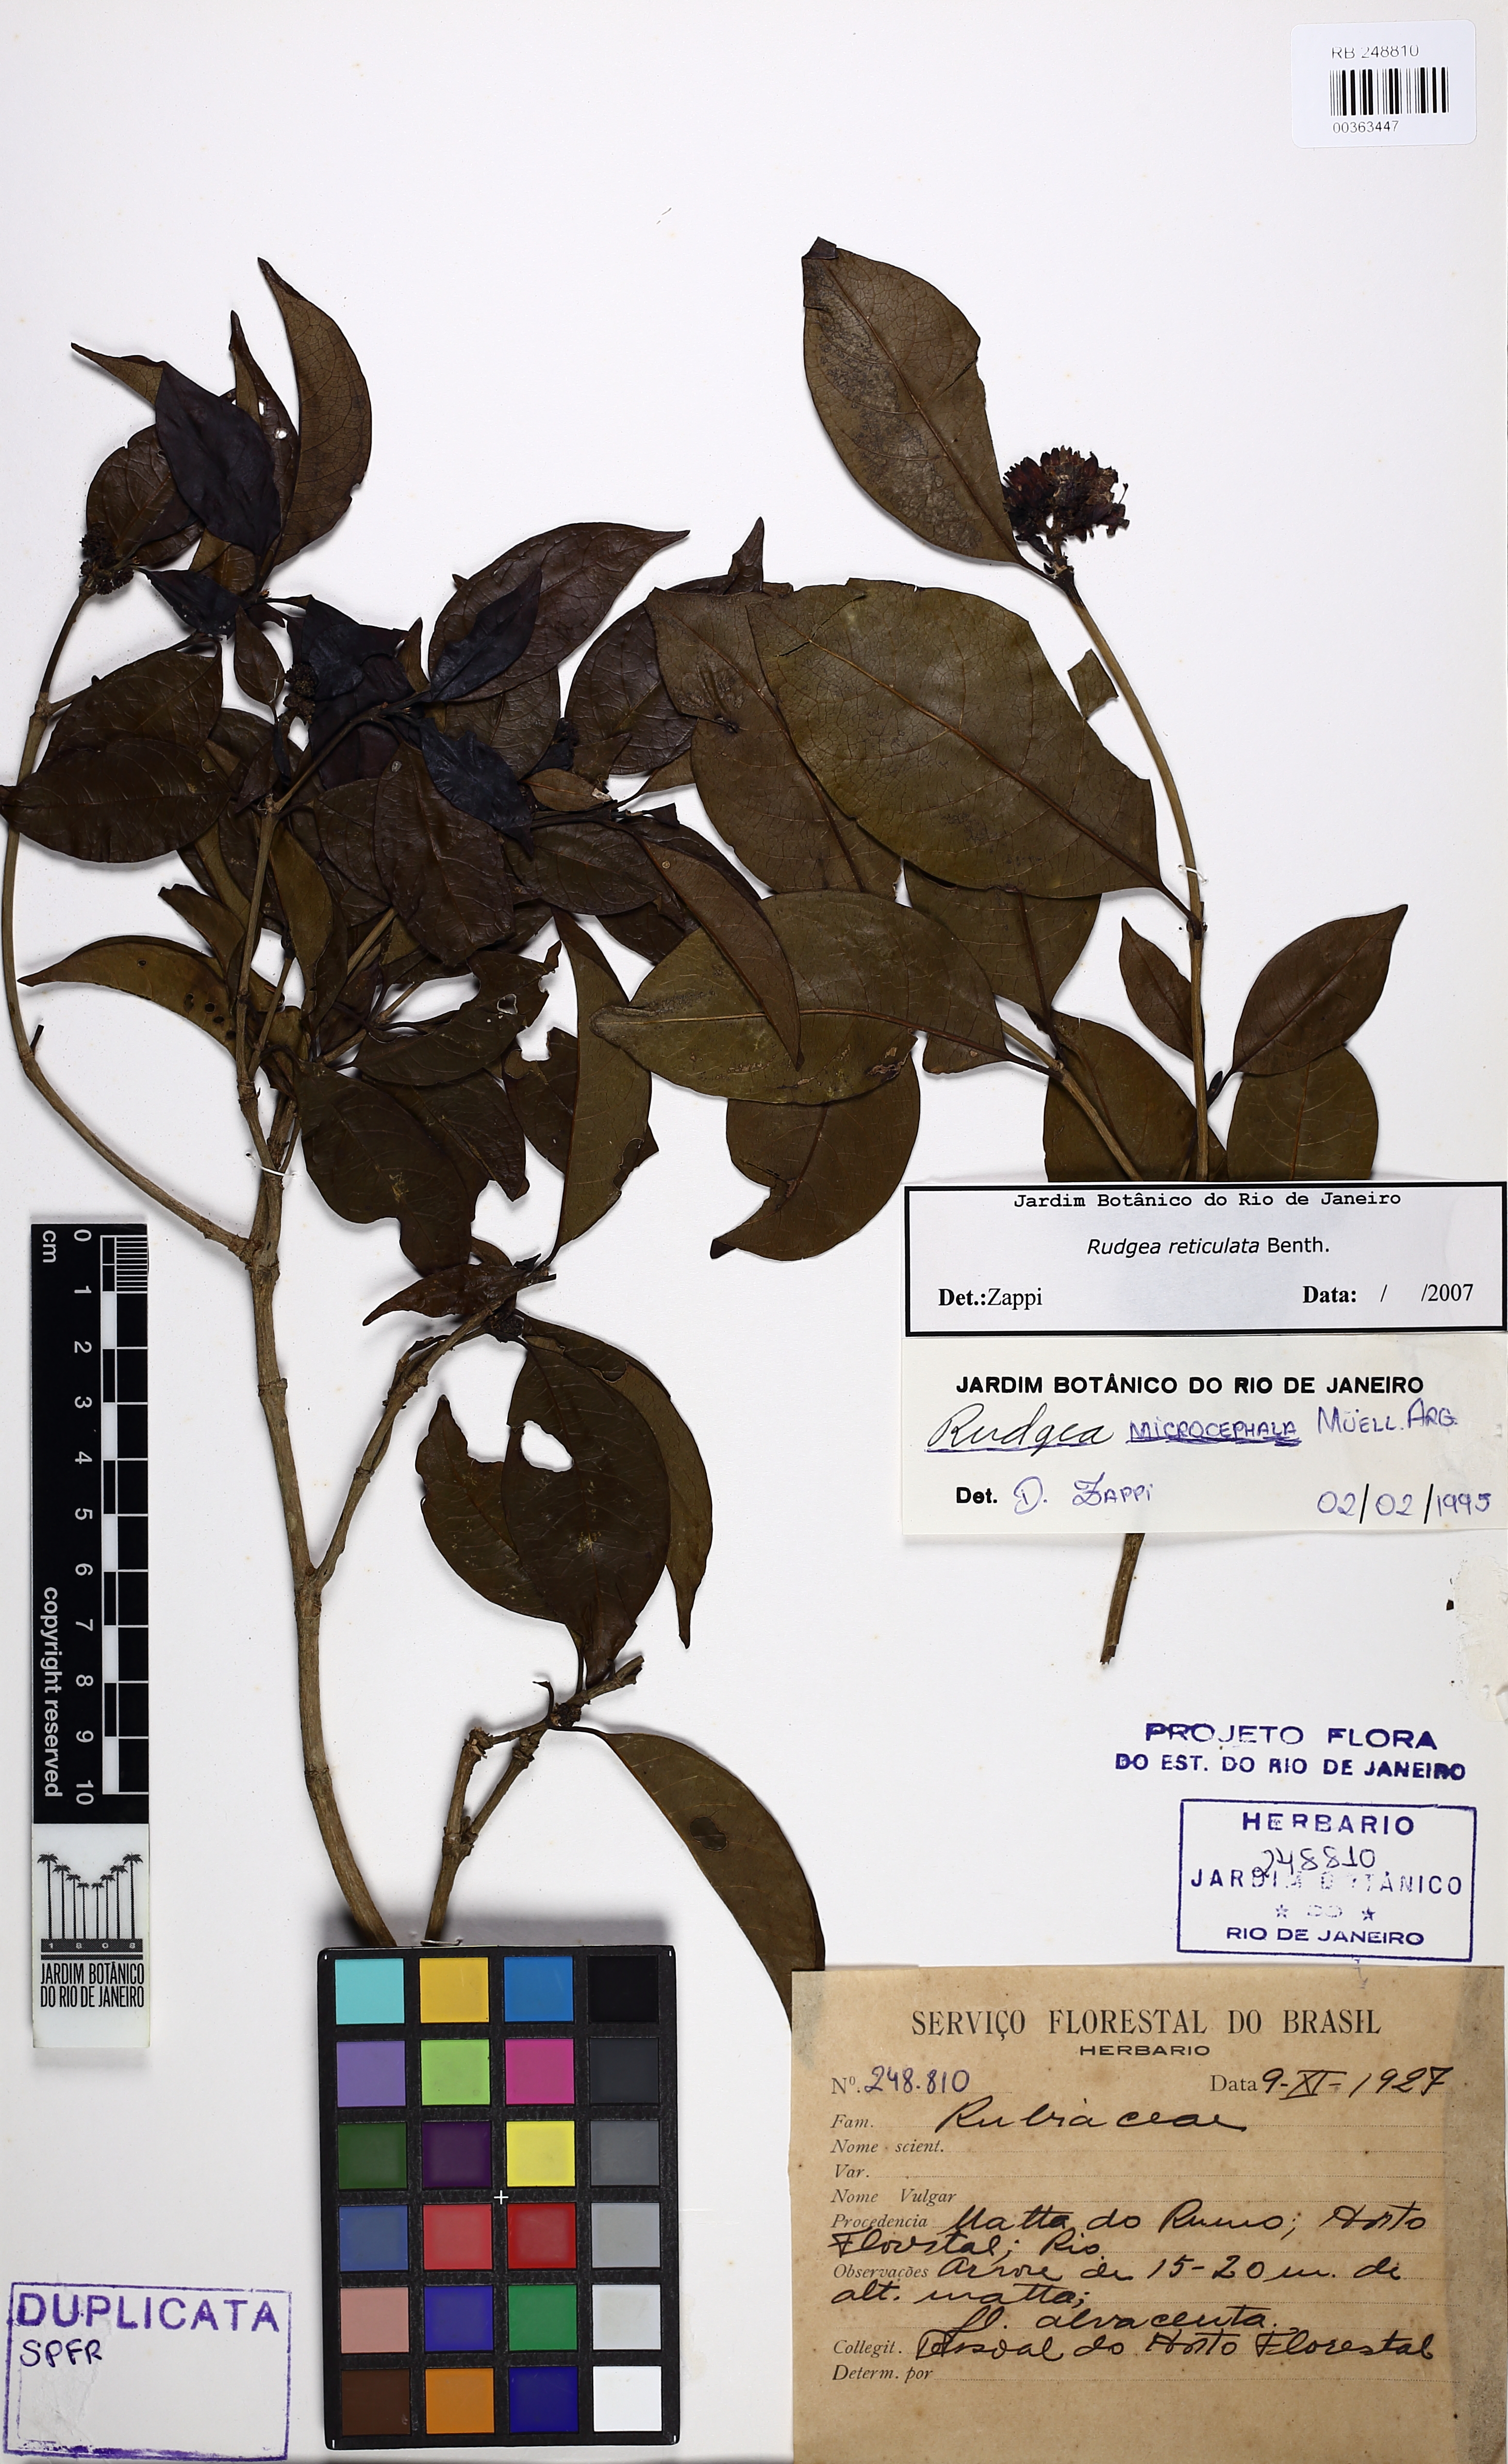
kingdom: Plantae
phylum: Tracheophyta
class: Magnoliopsida
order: Gentianales
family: Rubiaceae
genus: Rudgea
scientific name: Rudgea reticulata
